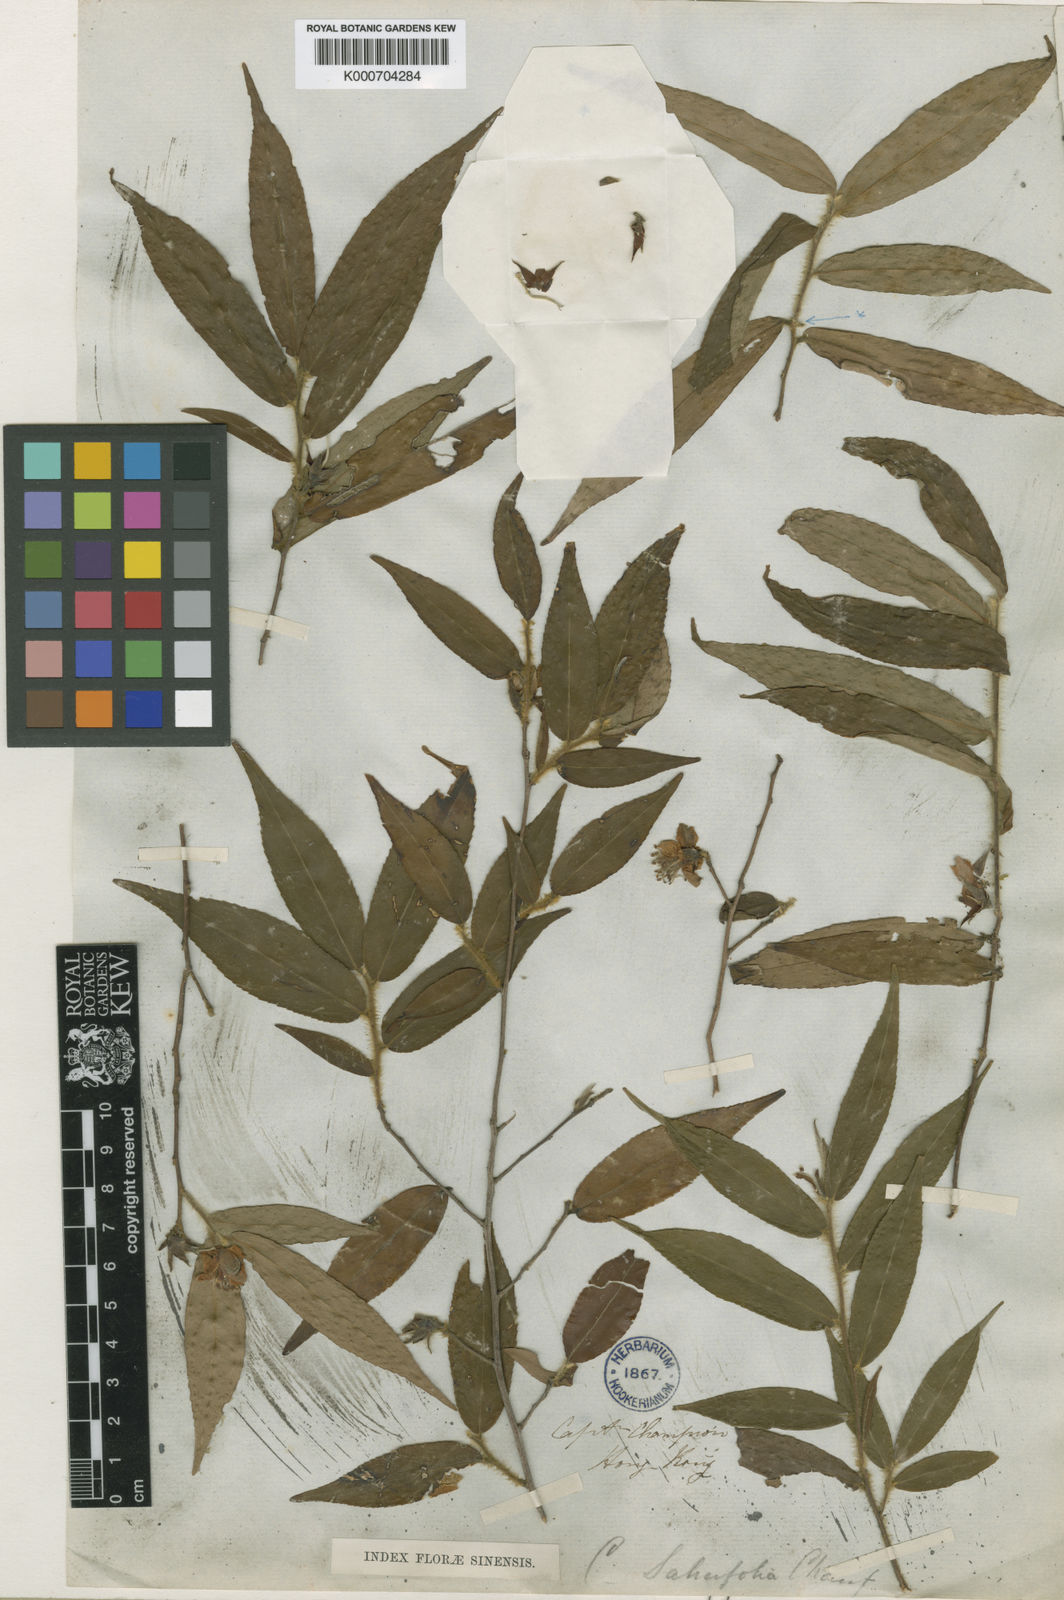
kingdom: Plantae
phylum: Tracheophyta
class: Magnoliopsida
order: Ericales
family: Theaceae
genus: Camellia
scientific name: Camellia
